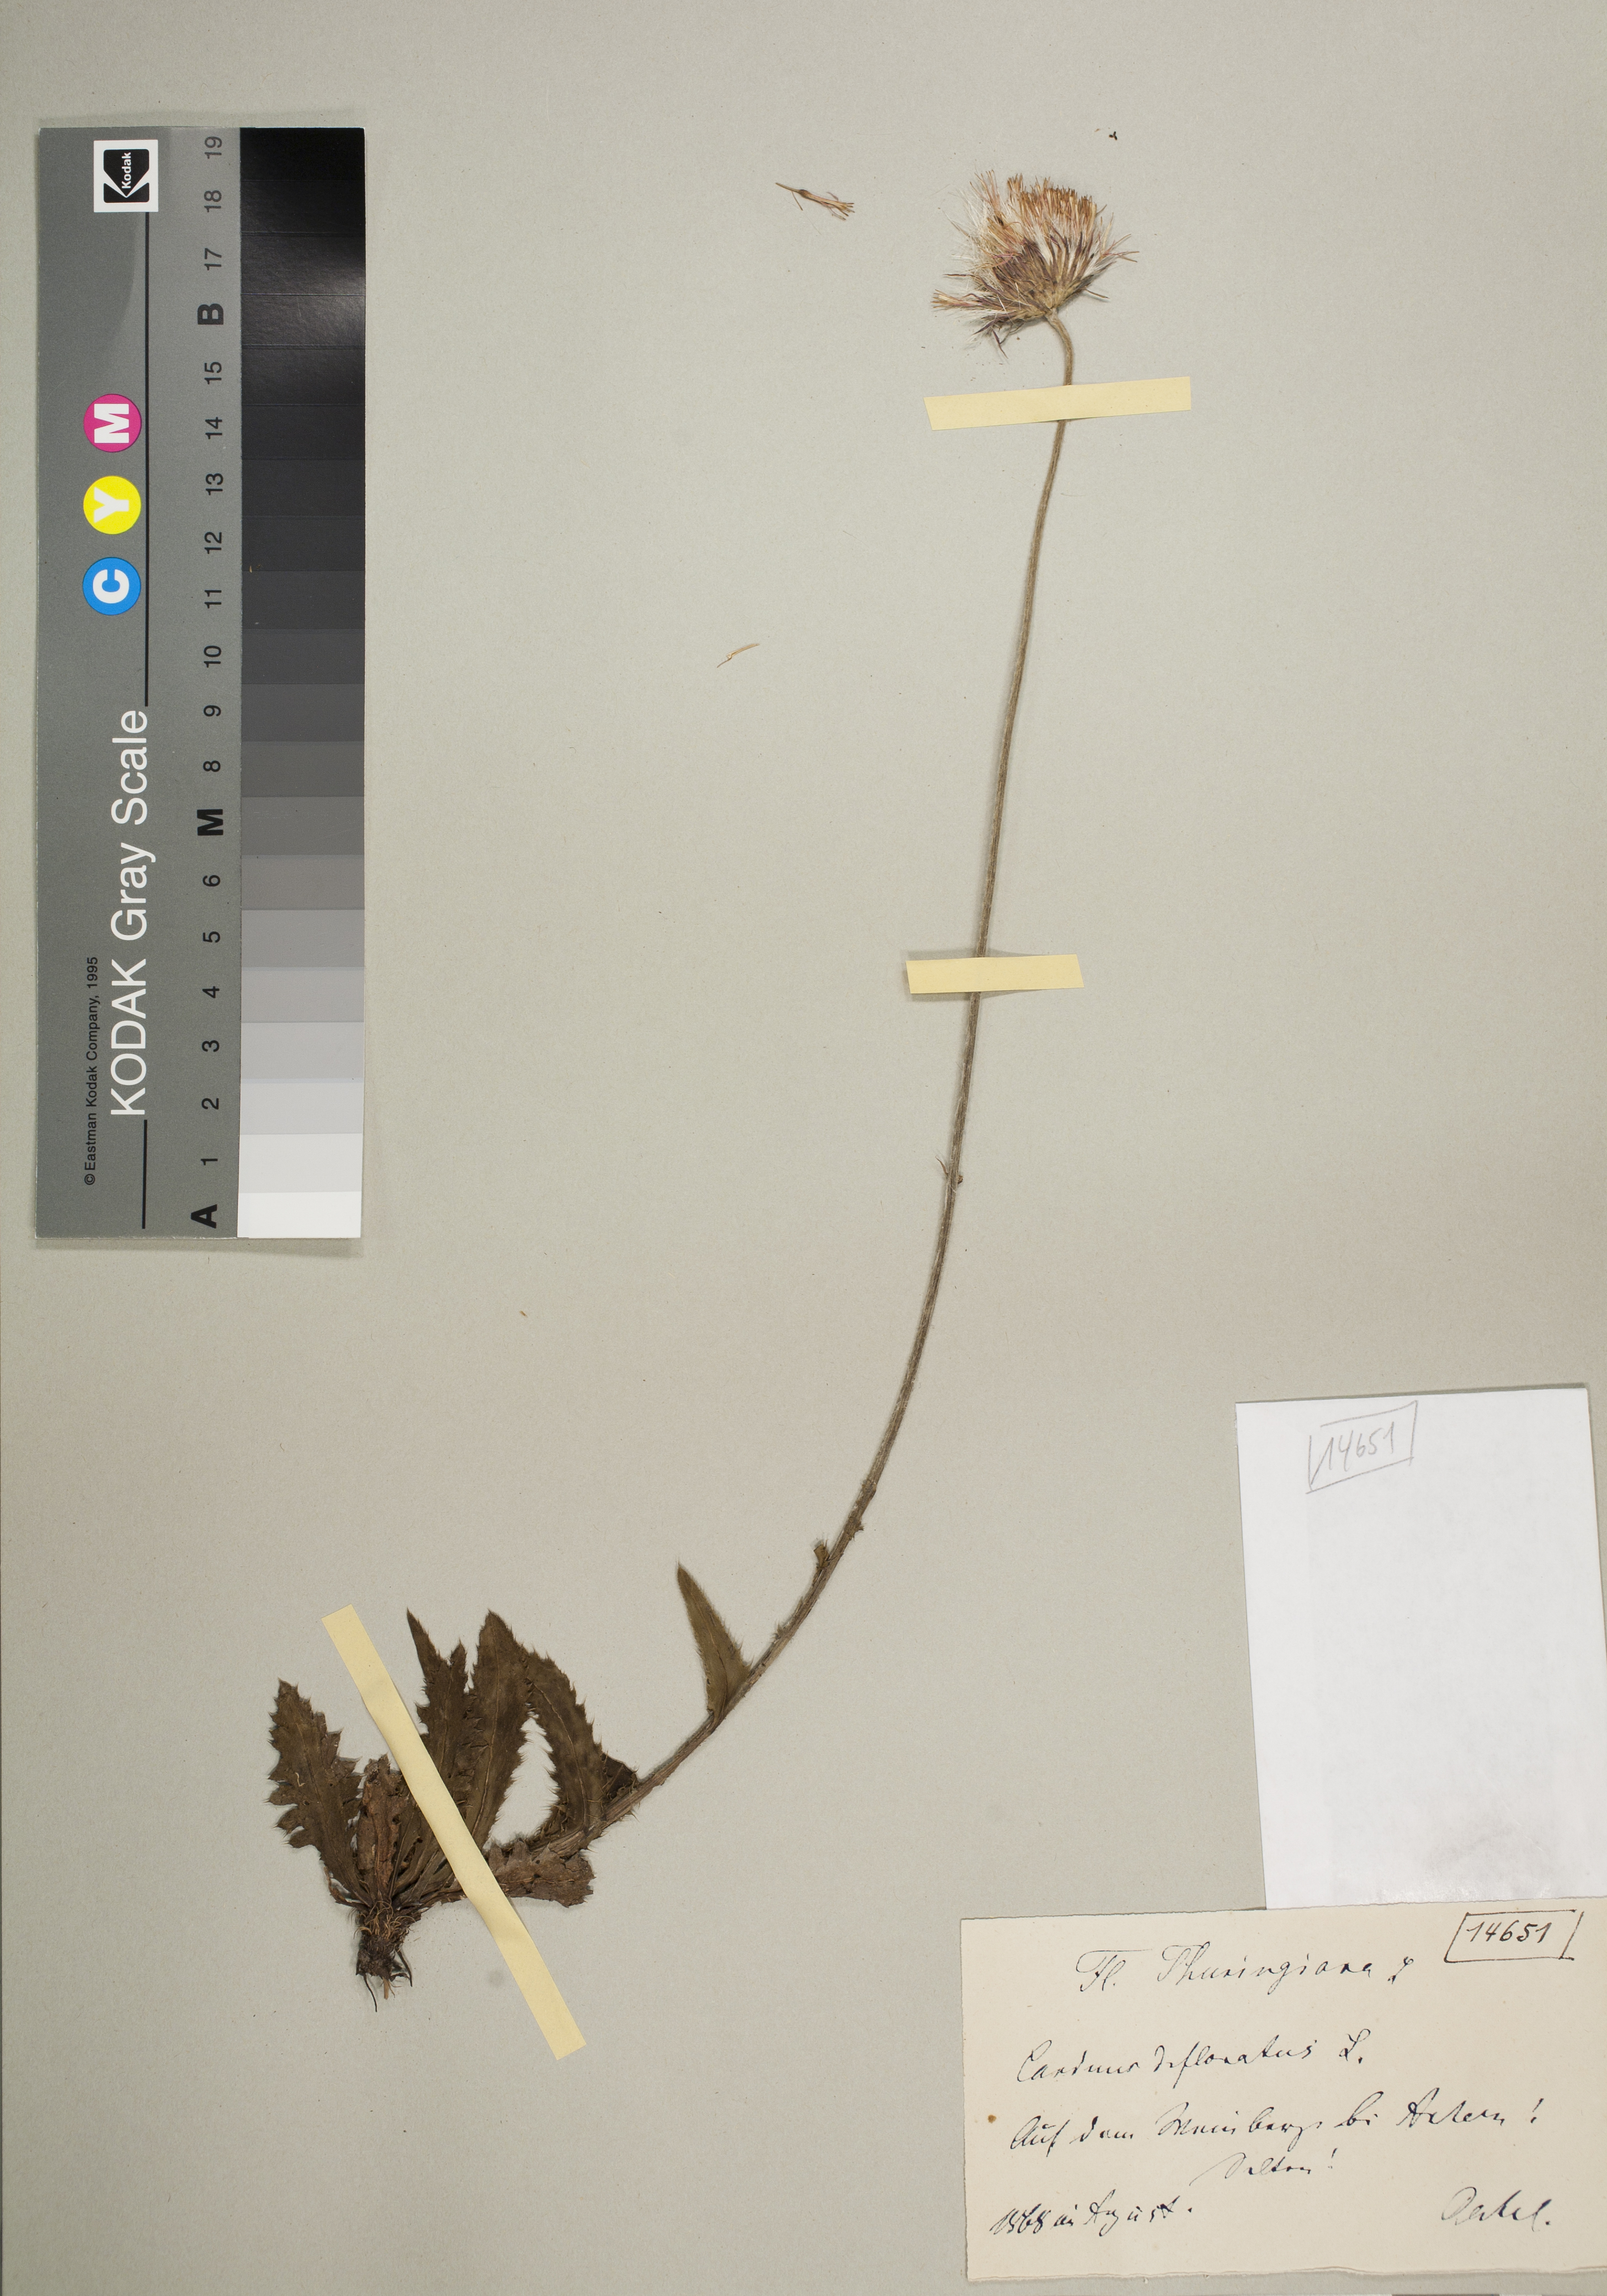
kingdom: Plantae
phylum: Tracheophyta
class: Magnoliopsida
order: Asterales
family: Asteraceae
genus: Carduus
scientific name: Carduus defloratus
